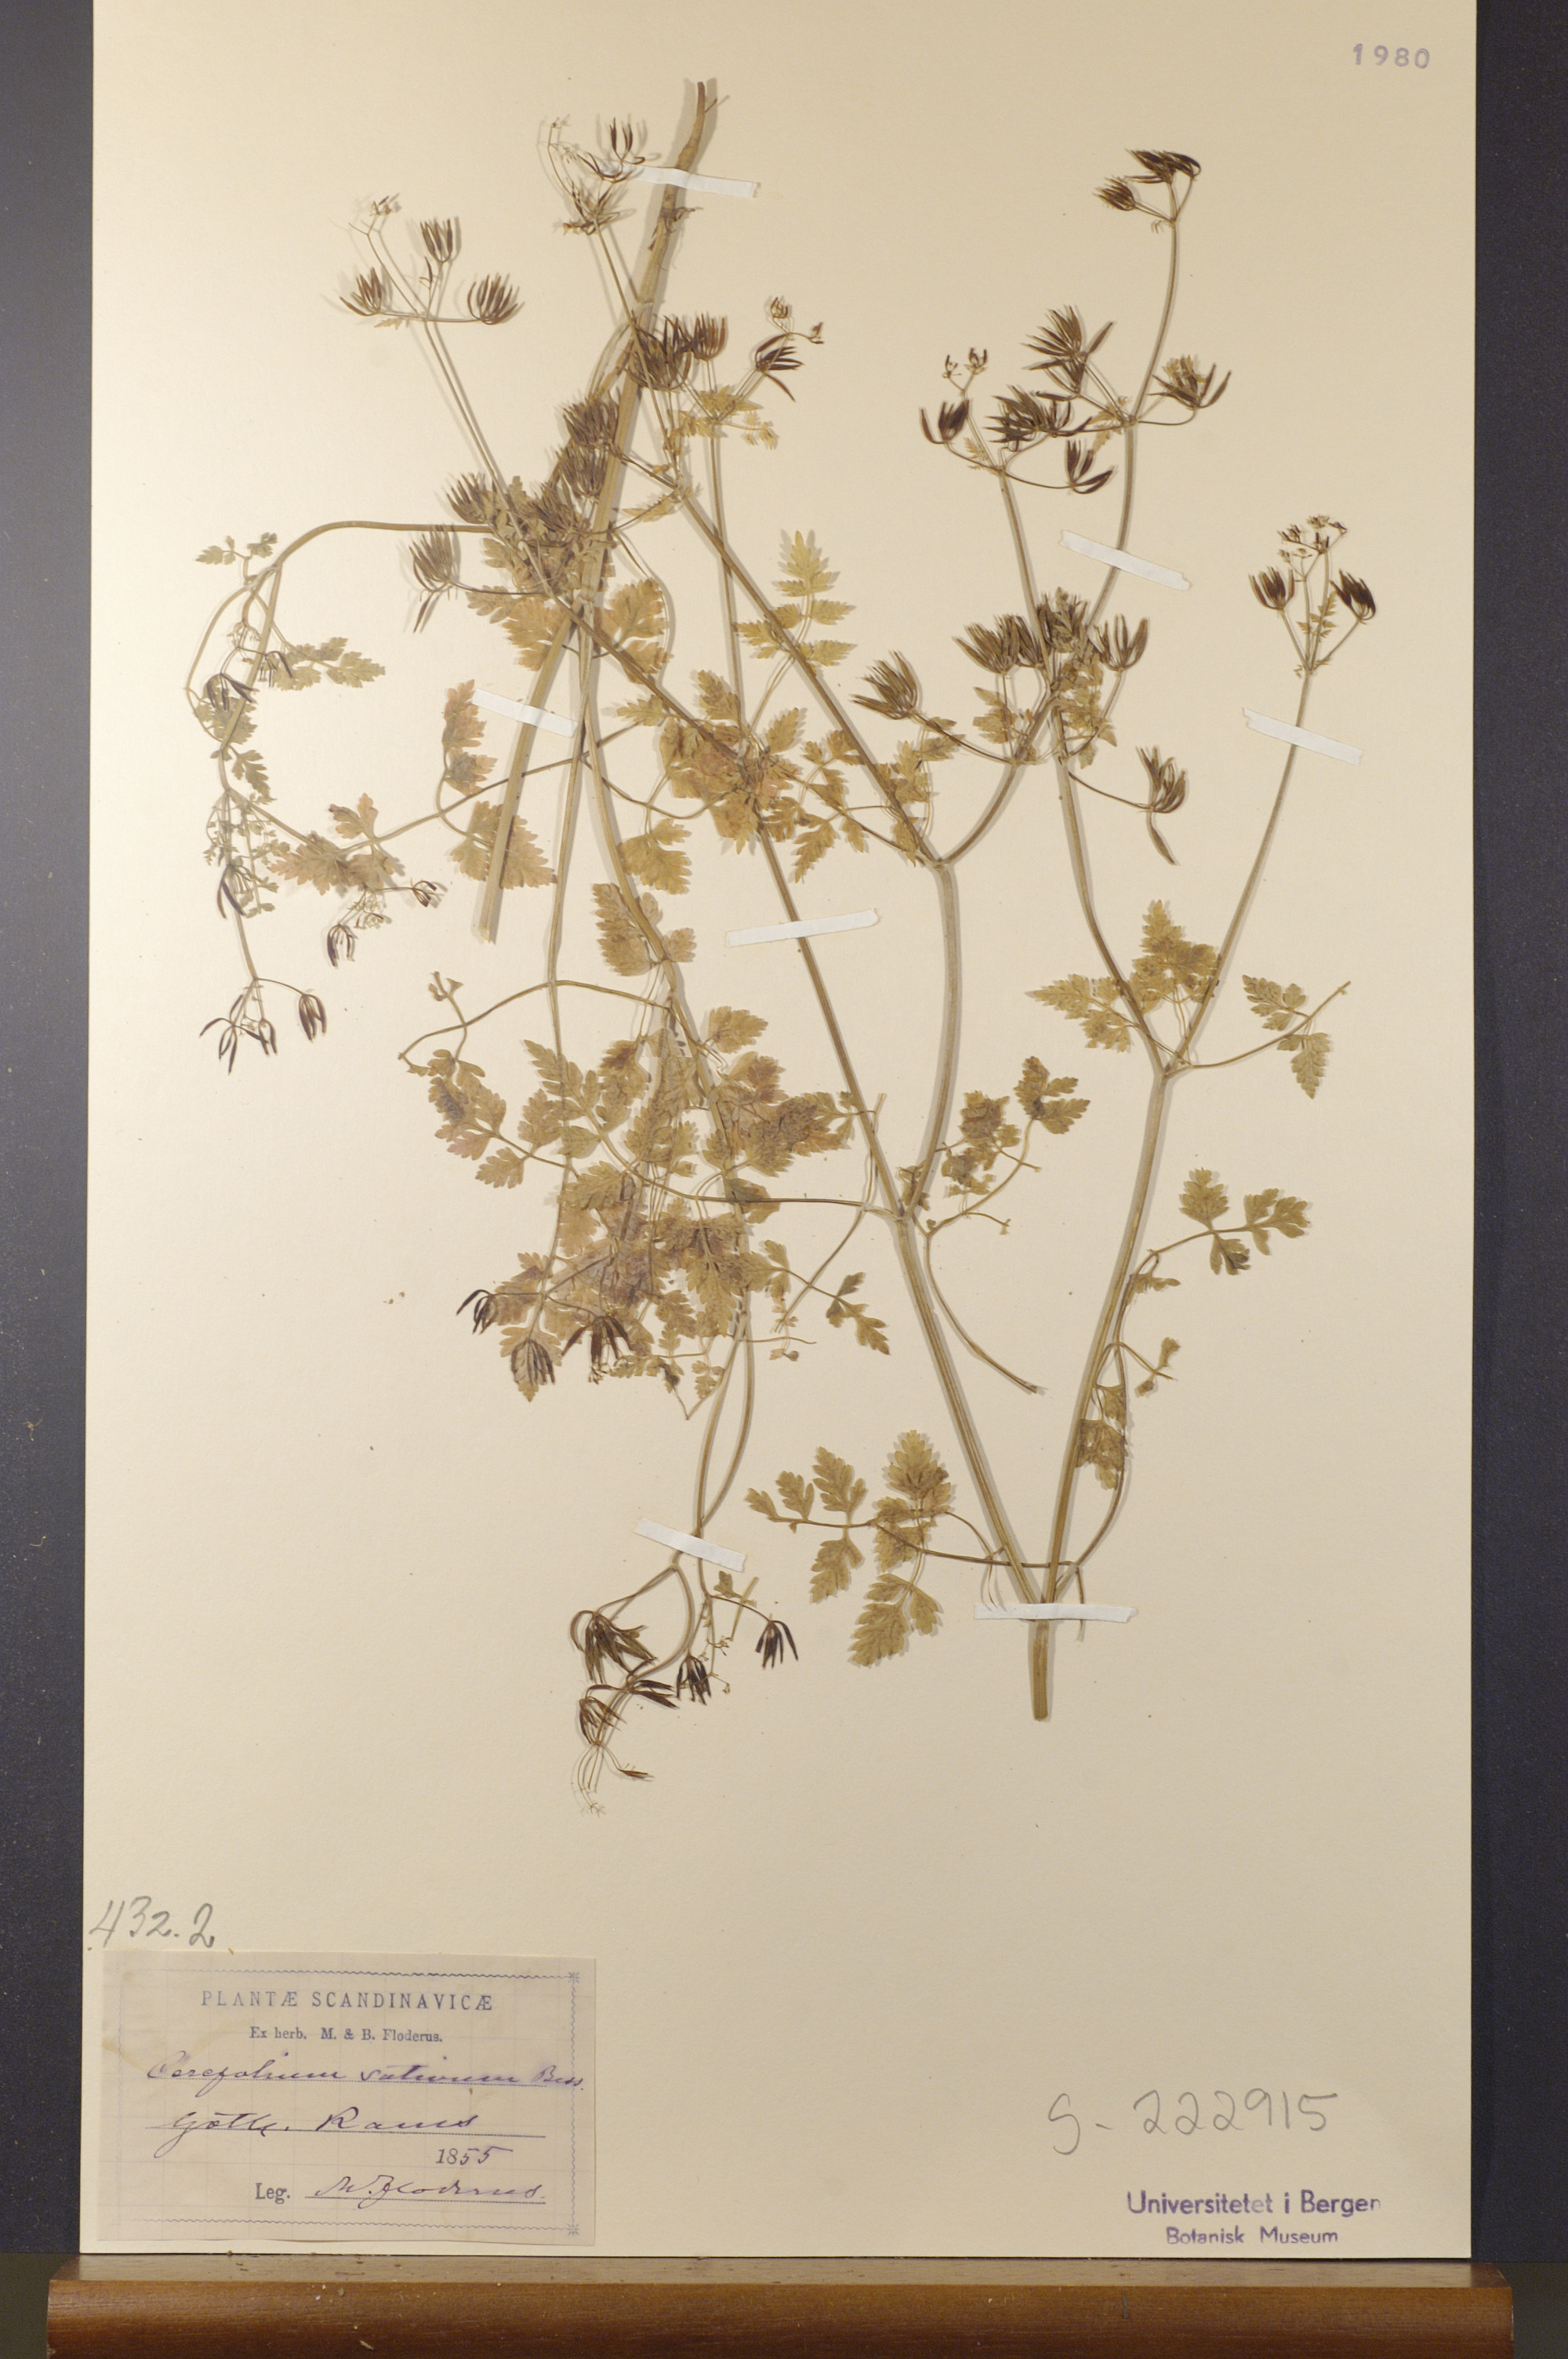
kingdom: Plantae
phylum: Tracheophyta
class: Magnoliopsida
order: Apiales
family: Apiaceae
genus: Anthriscus
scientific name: Anthriscus cerefolium
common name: Garden chervil
